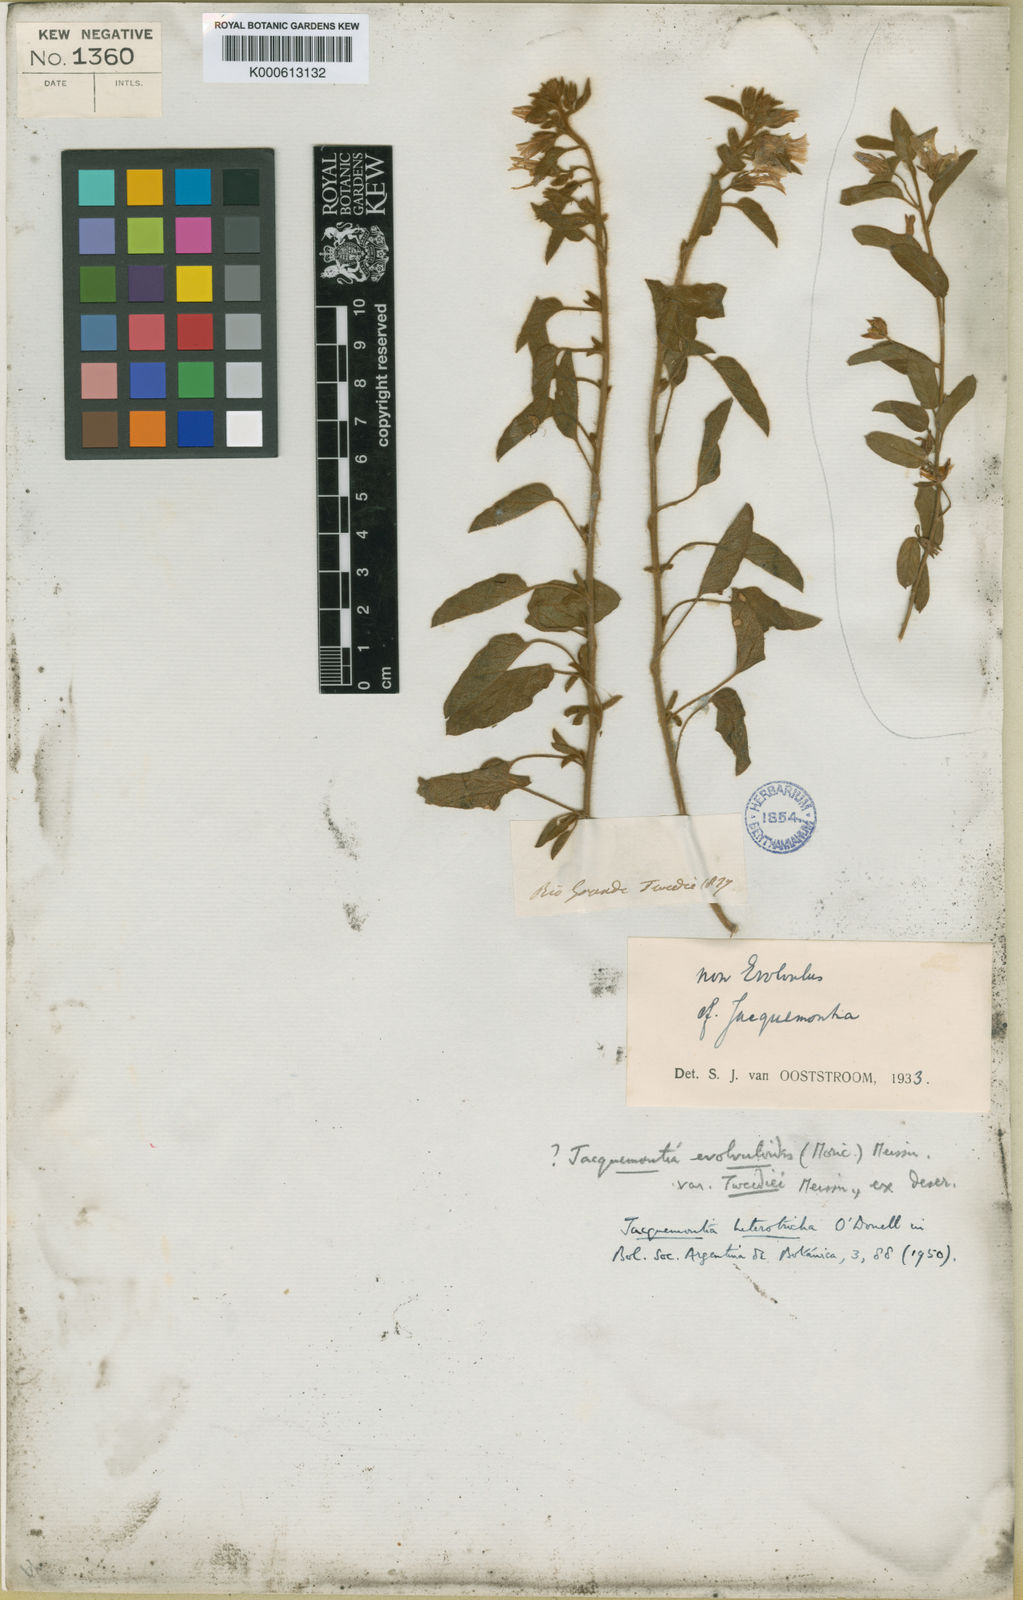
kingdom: Plantae
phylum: Tracheophyta
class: Magnoliopsida
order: Solanales
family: Convolvulaceae
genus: Jacquemontia
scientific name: Jacquemontia heterotricha
